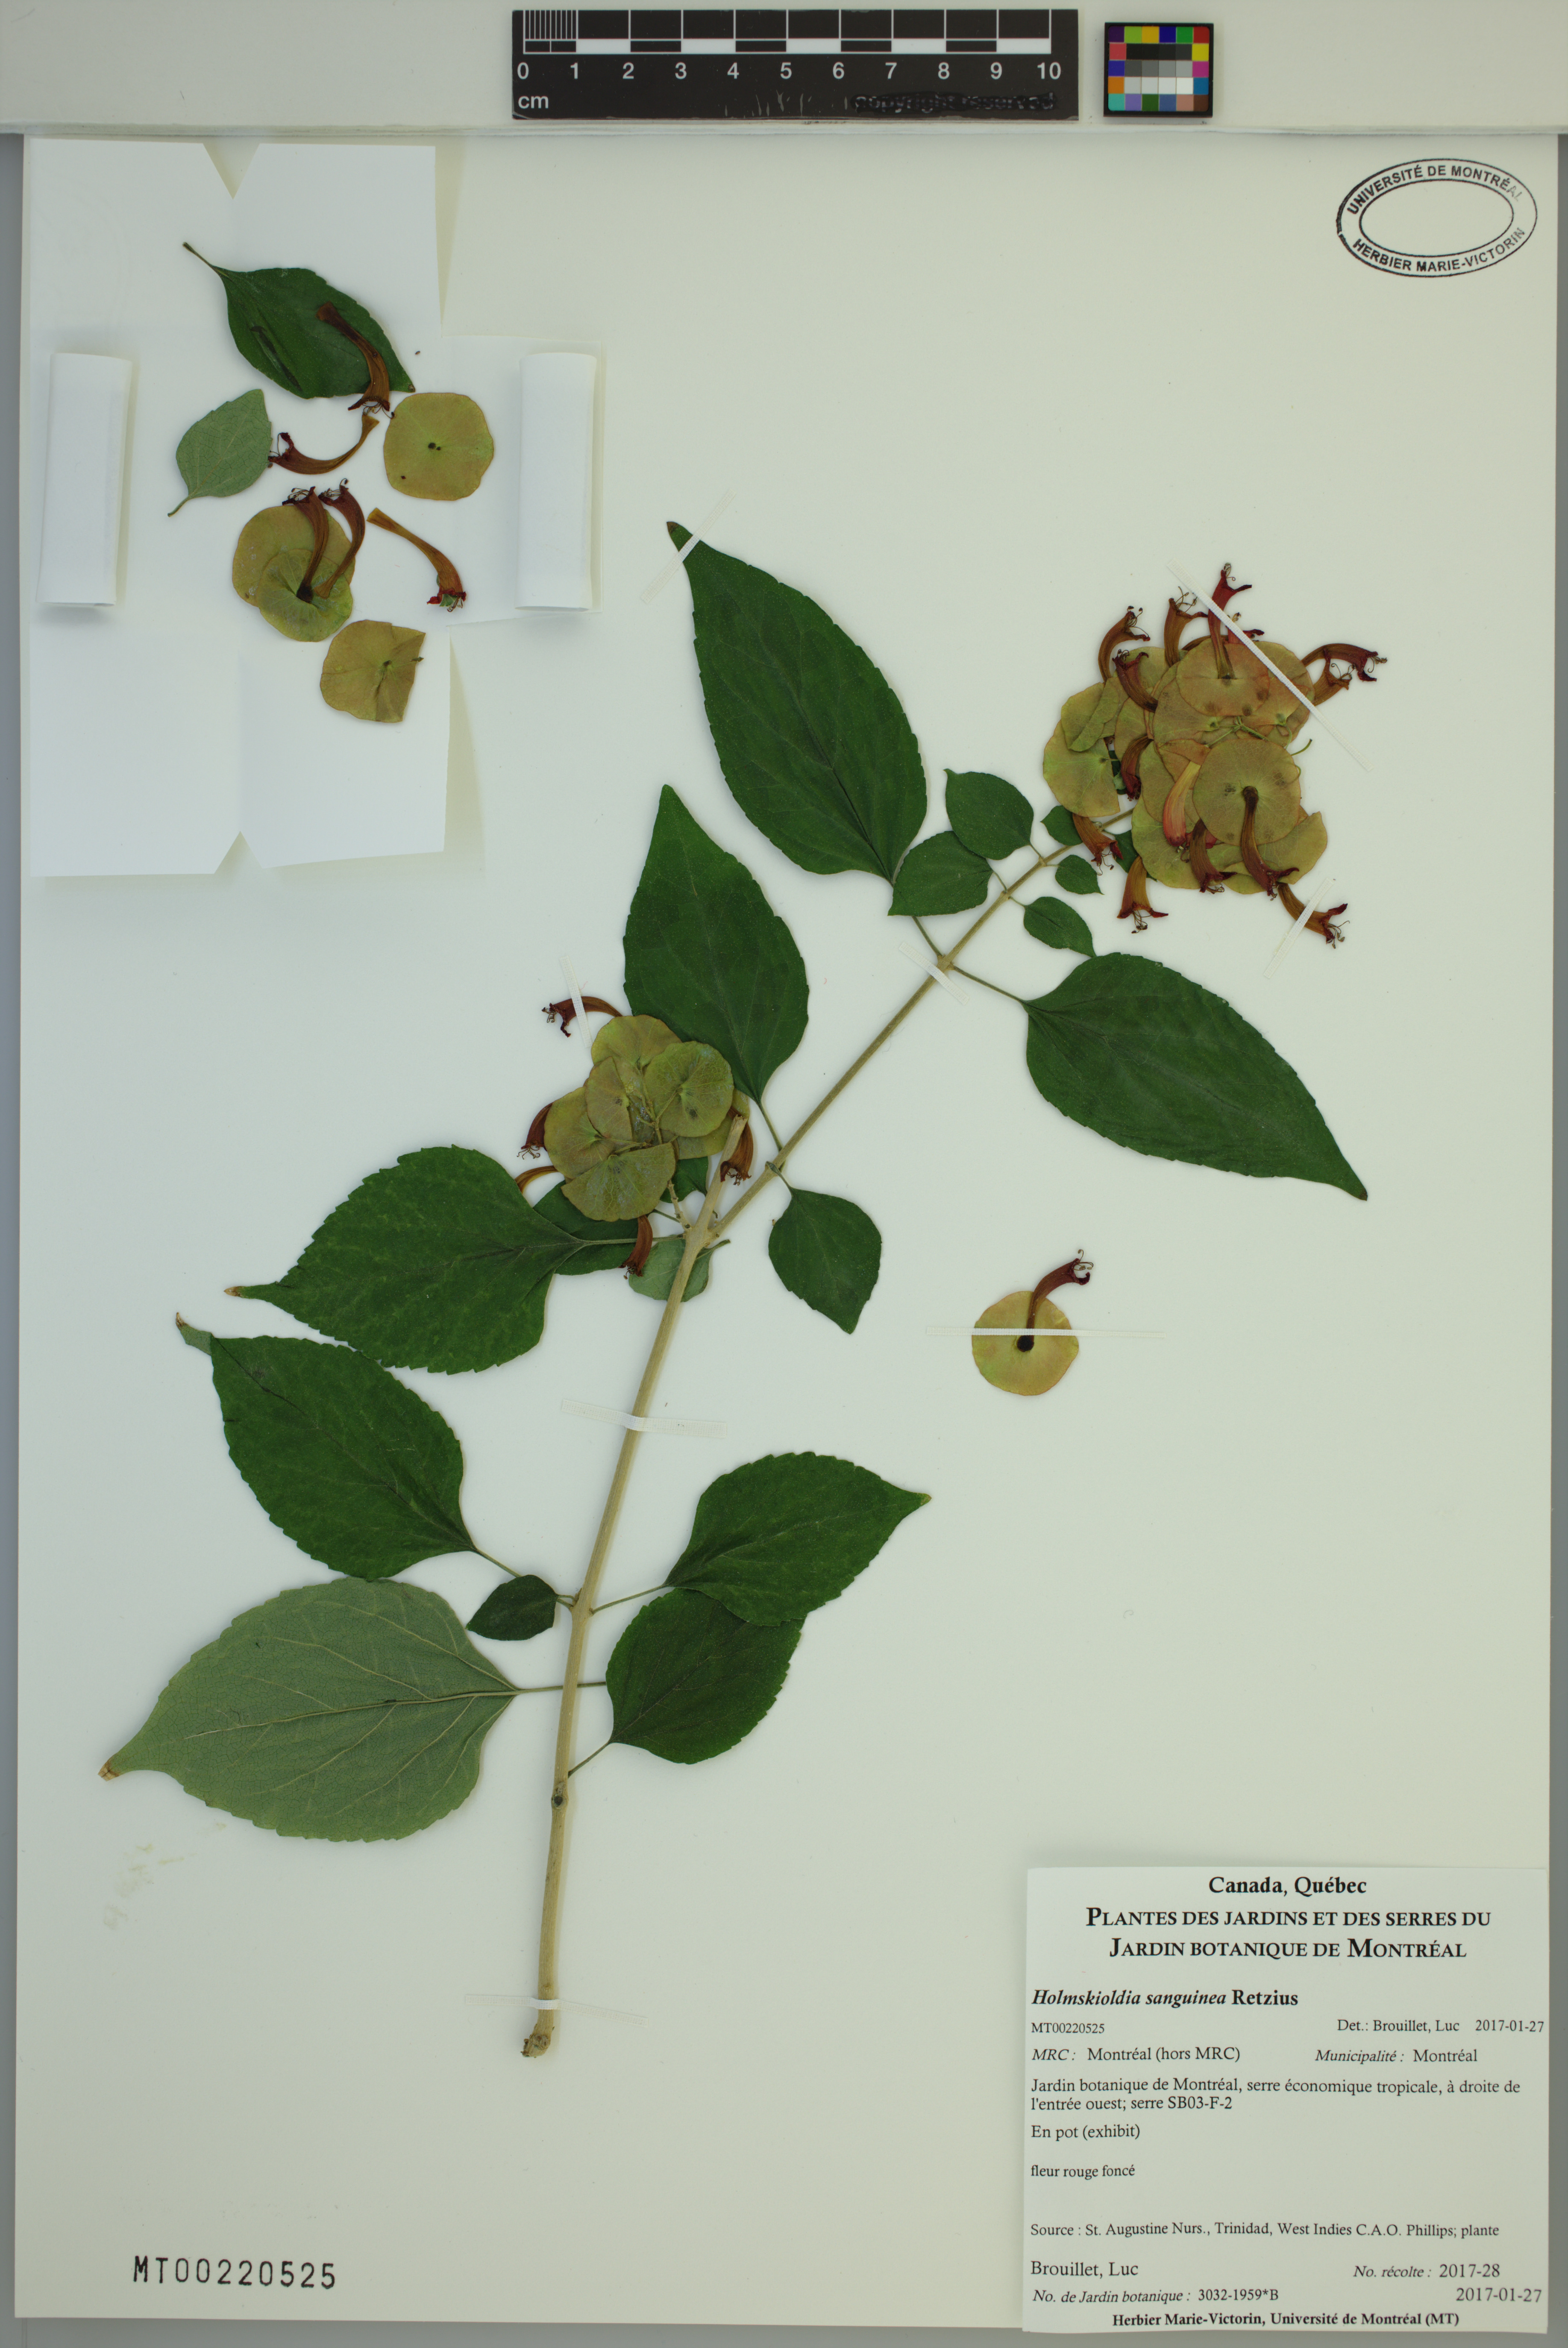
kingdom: Plantae
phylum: Tracheophyta
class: Magnoliopsida
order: Lamiales
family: Lamiaceae
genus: Holmskioldia
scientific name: Holmskioldia sanguinea
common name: Chinese hatplant
